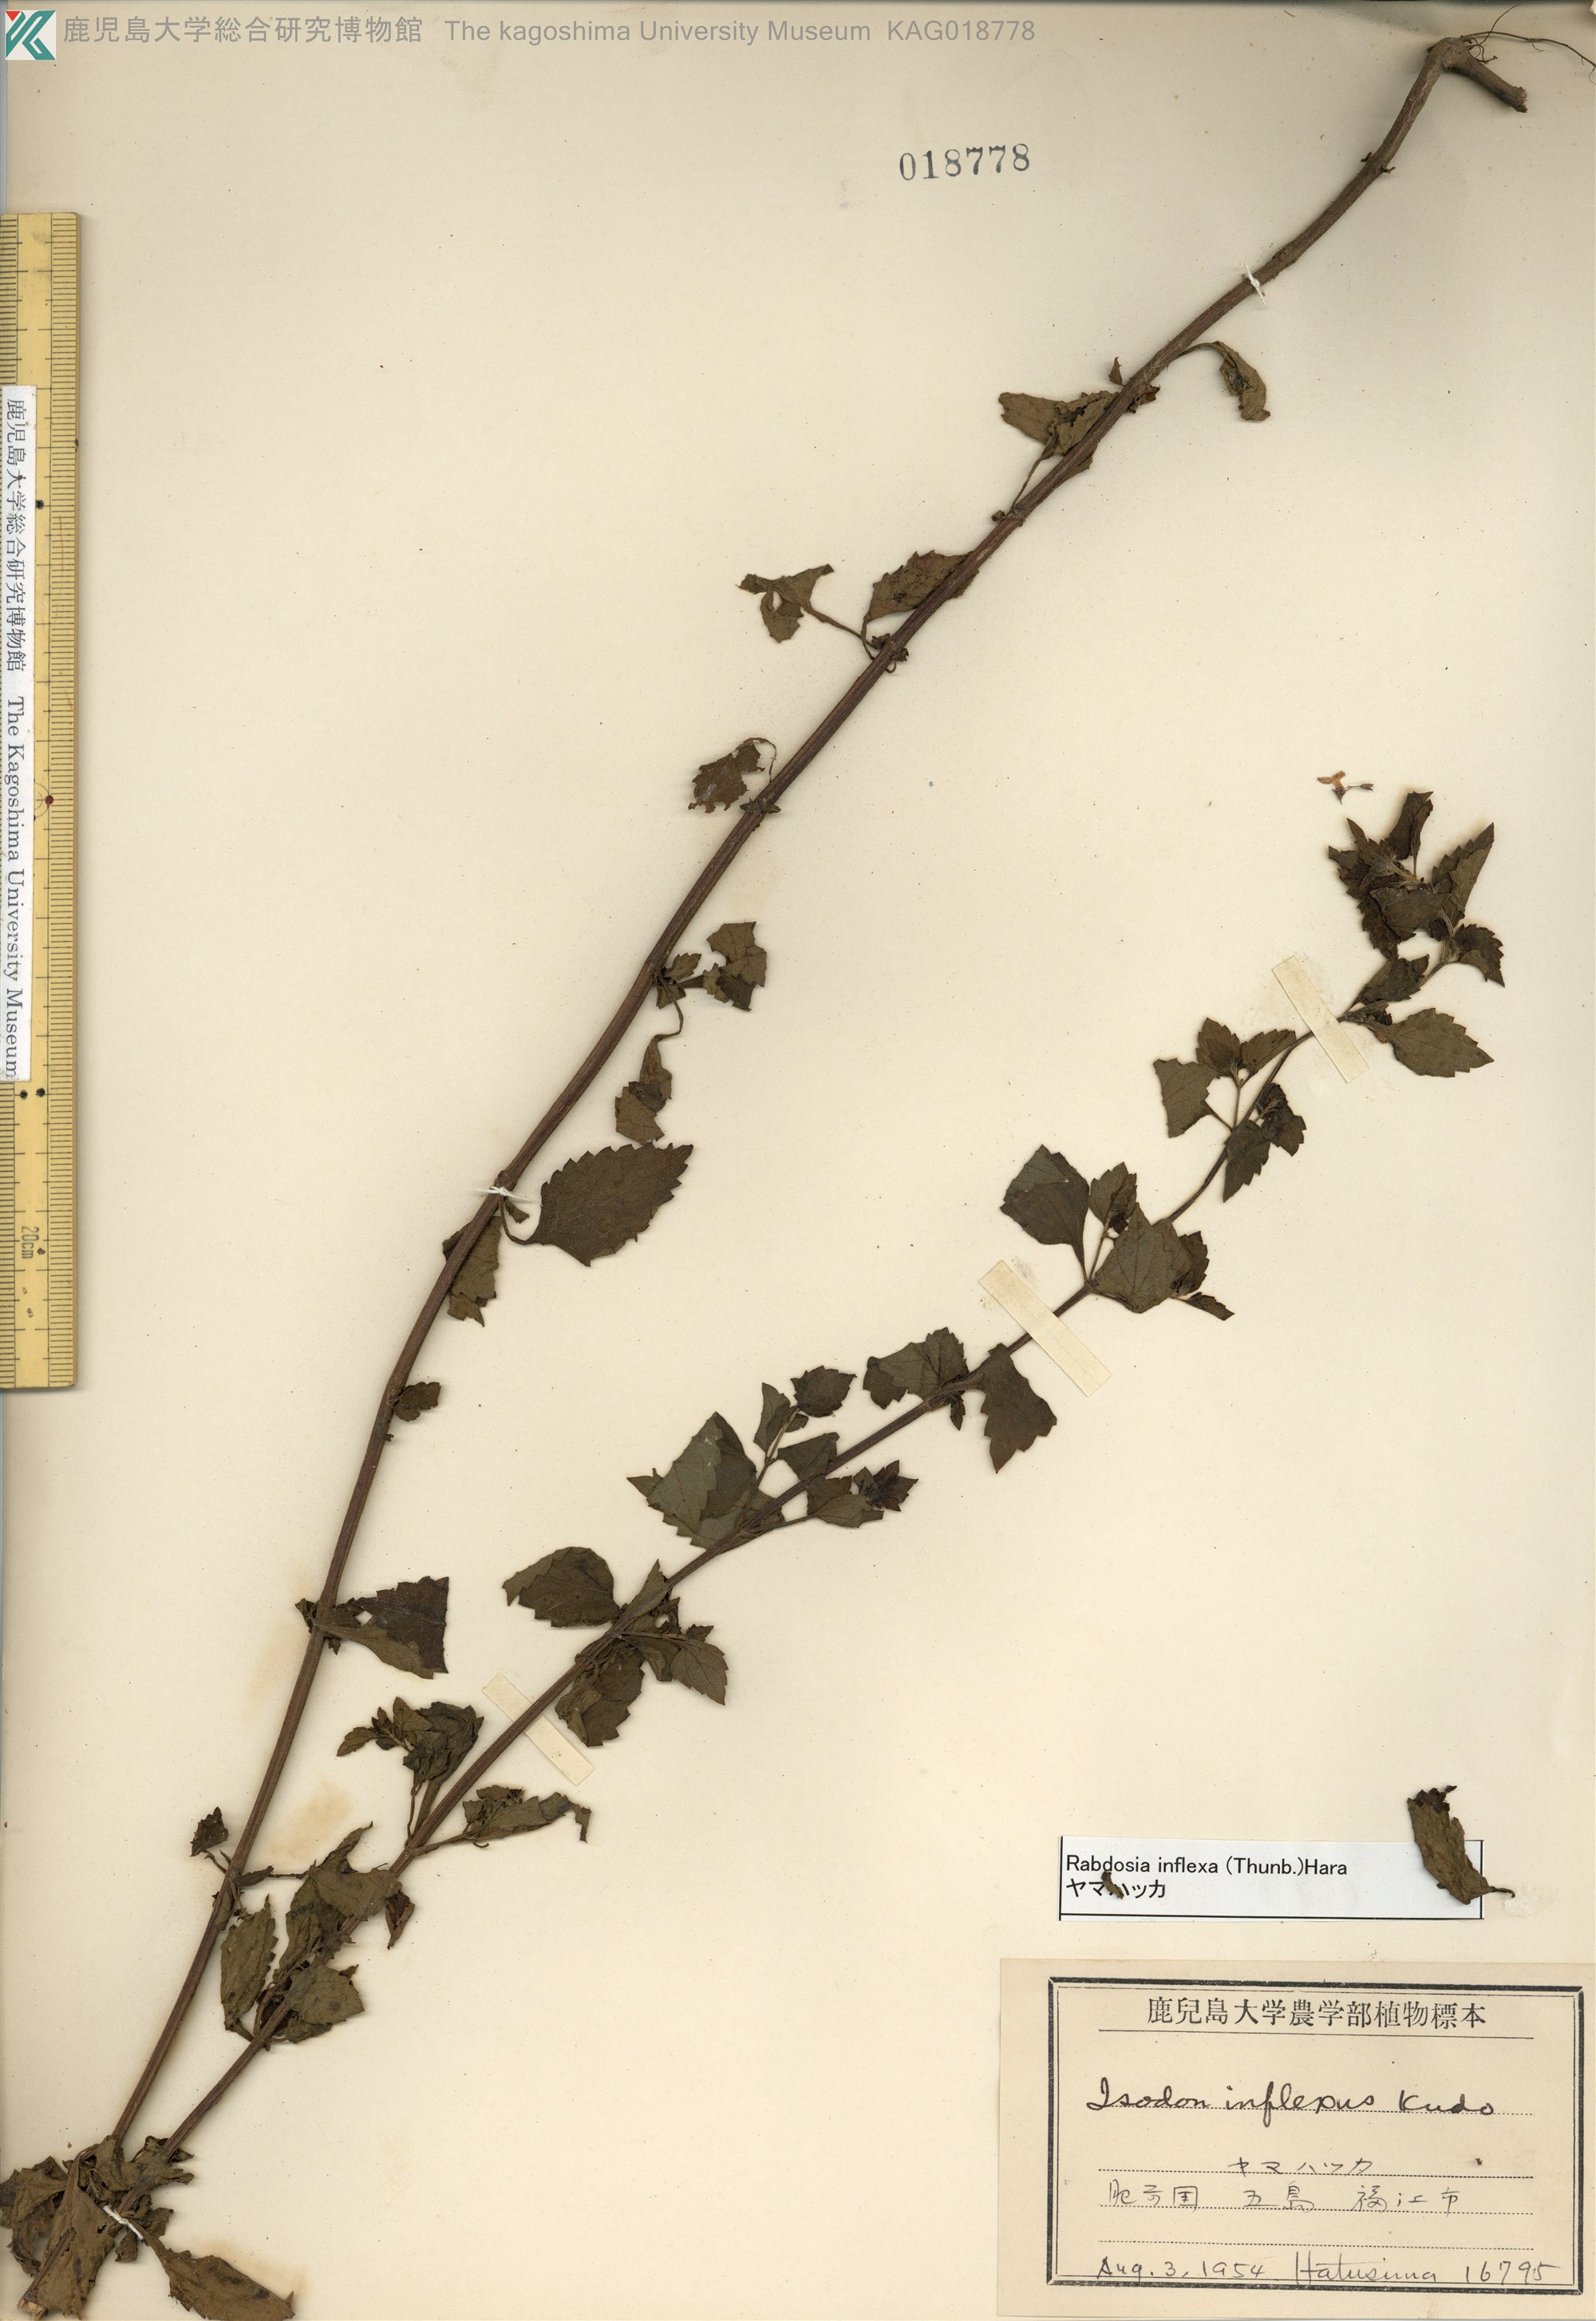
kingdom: Plantae
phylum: Tracheophyta
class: Magnoliopsida
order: Lamiales
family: Lamiaceae
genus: Isodon
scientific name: Isodon inflexus
